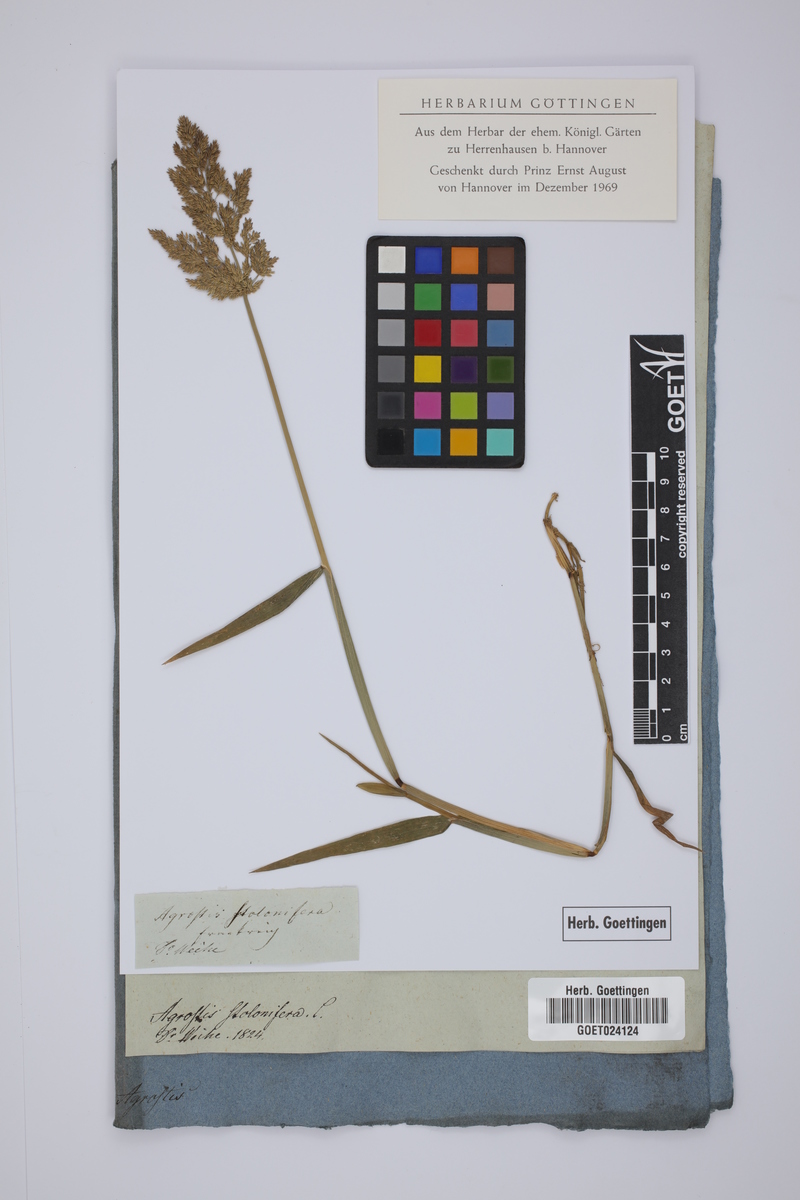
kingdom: Plantae
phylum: Tracheophyta
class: Liliopsida
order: Poales
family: Poaceae
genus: Agrostis
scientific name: Agrostis stolonifera
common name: Creeping bentgrass
